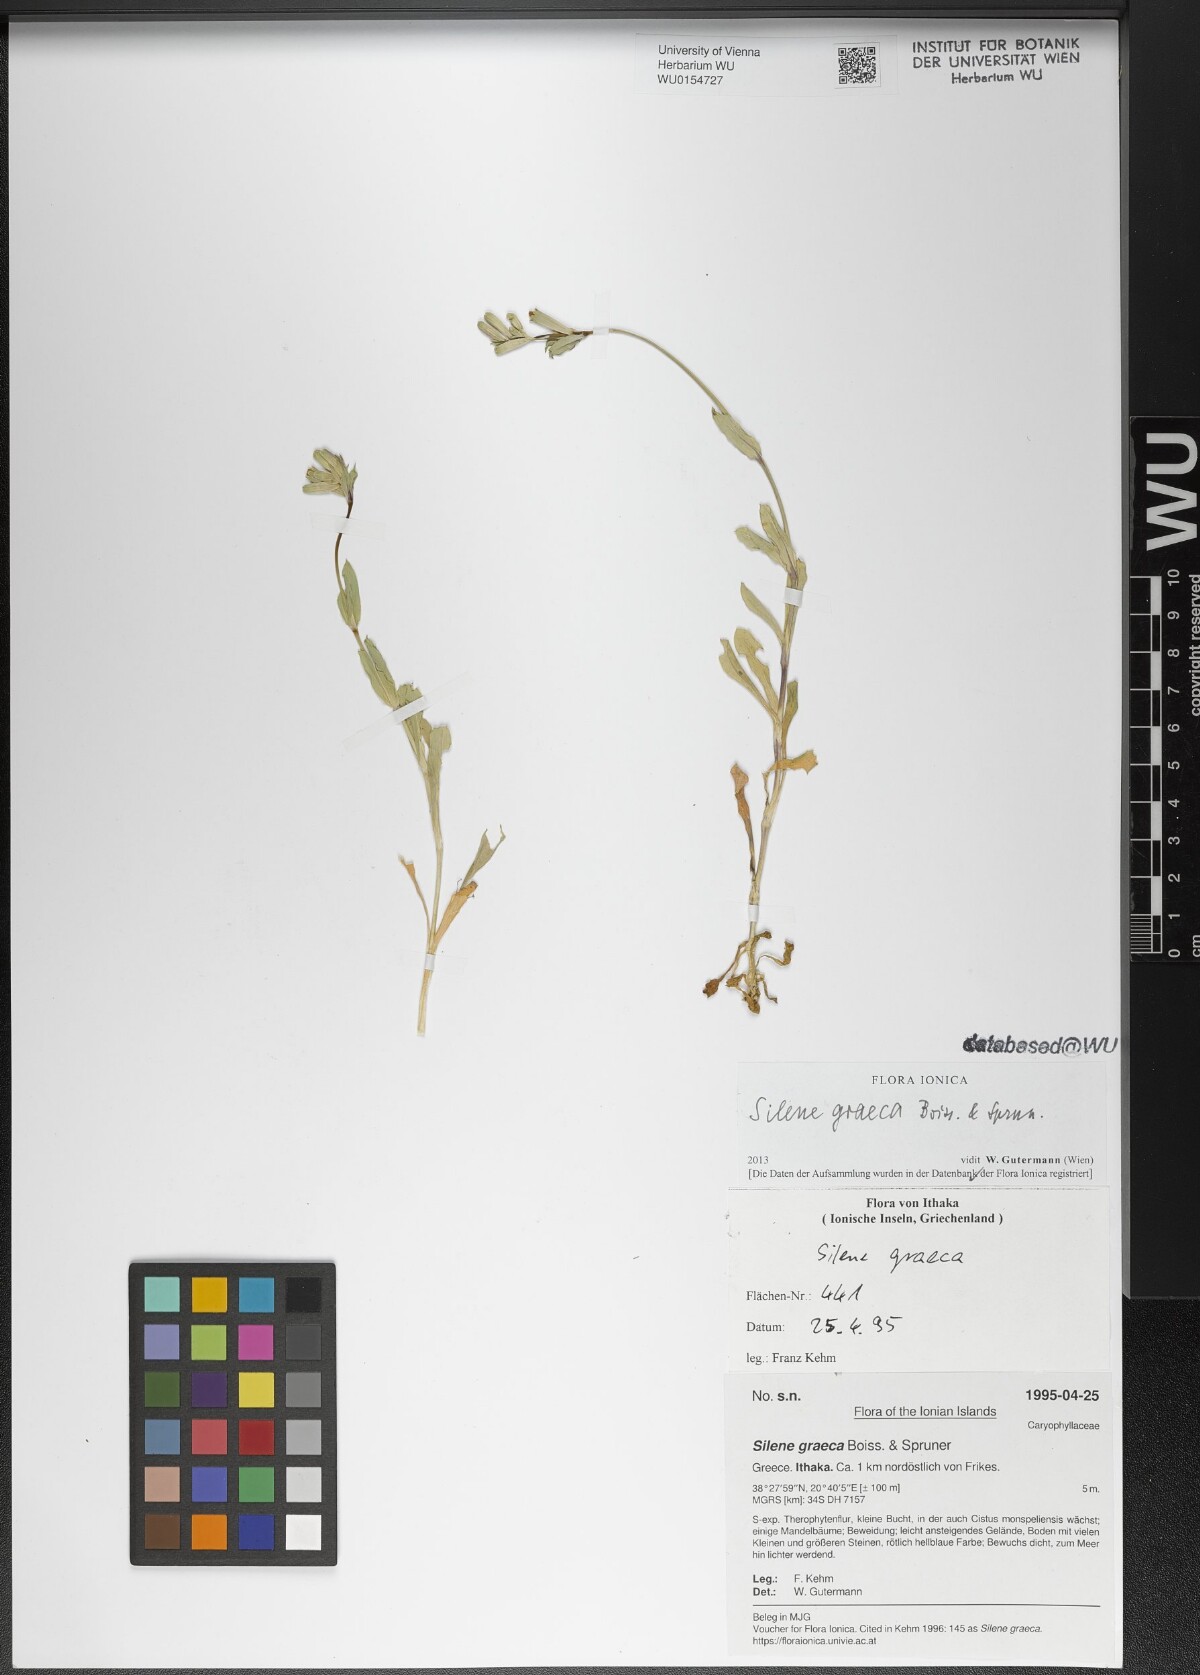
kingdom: Plantae
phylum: Tracheophyta
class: Magnoliopsida
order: Caryophyllales
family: Caryophyllaceae
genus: Silene
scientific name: Silene graeca
